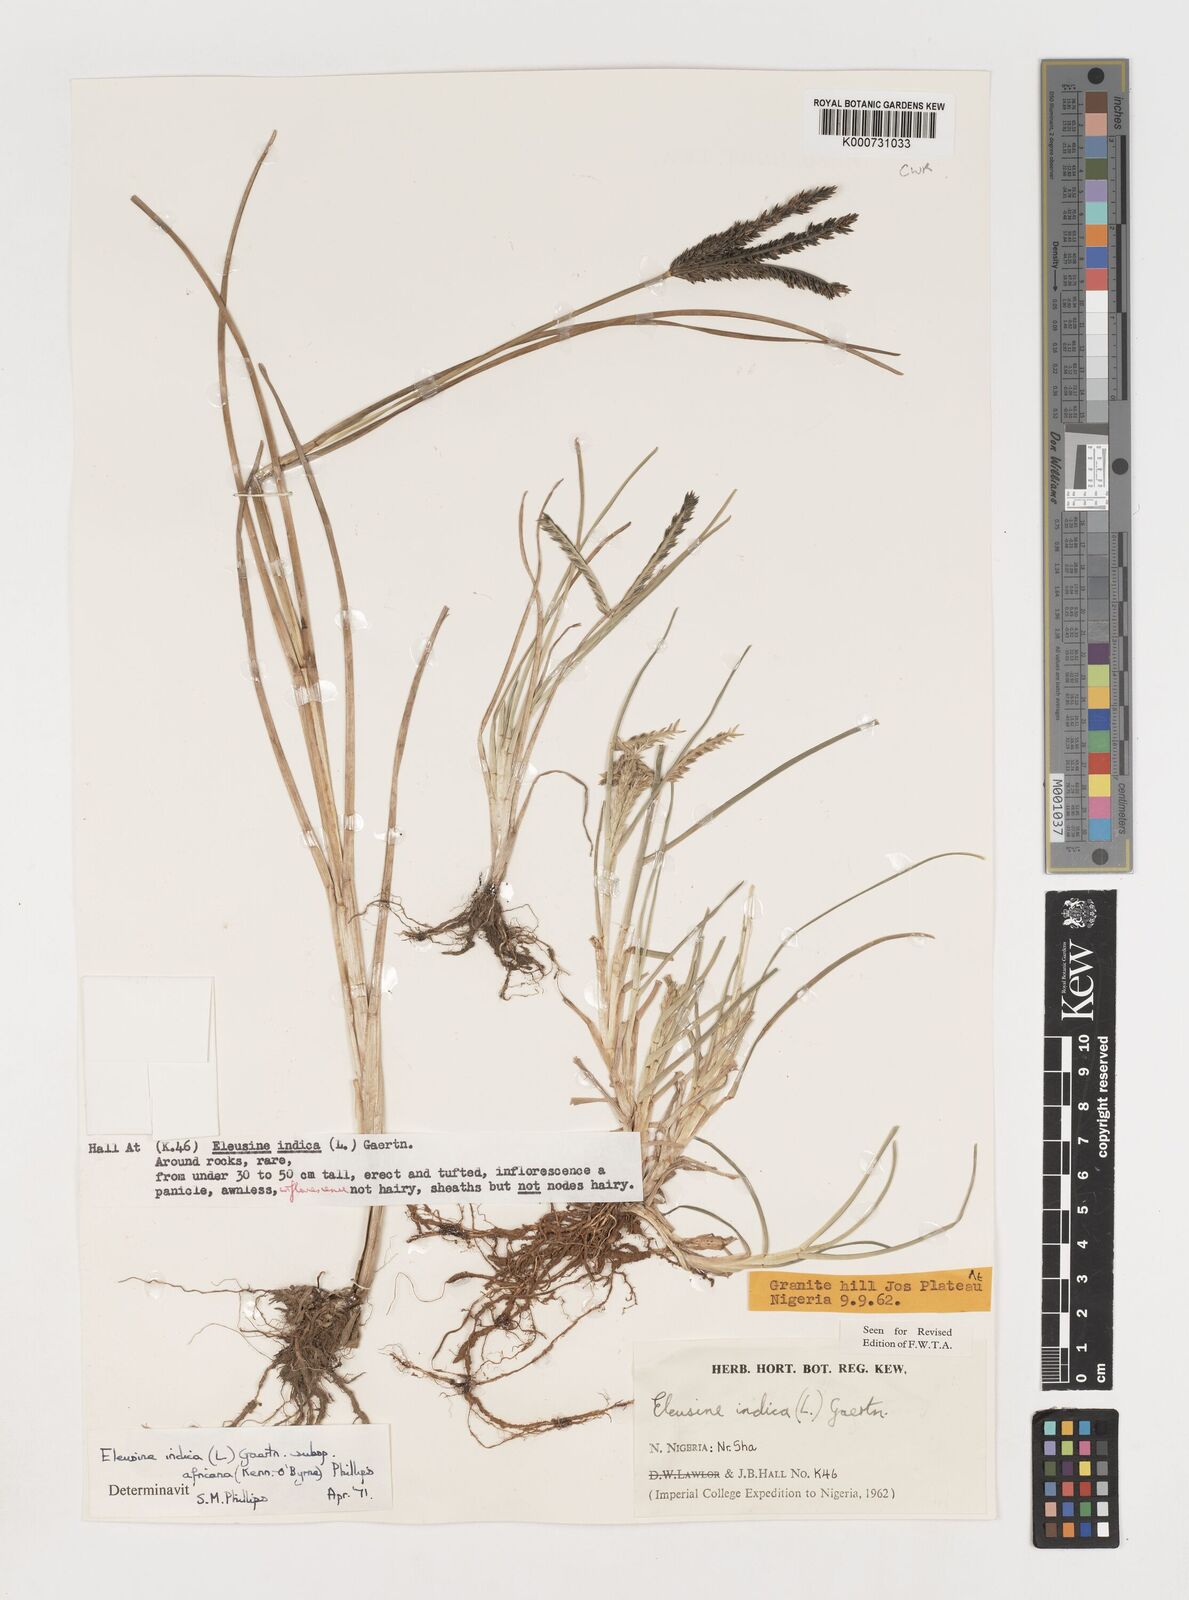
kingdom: Plantae
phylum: Tracheophyta
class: Liliopsida
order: Poales
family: Poaceae
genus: Eleusine
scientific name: Eleusine africana
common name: Wild african finger millet
